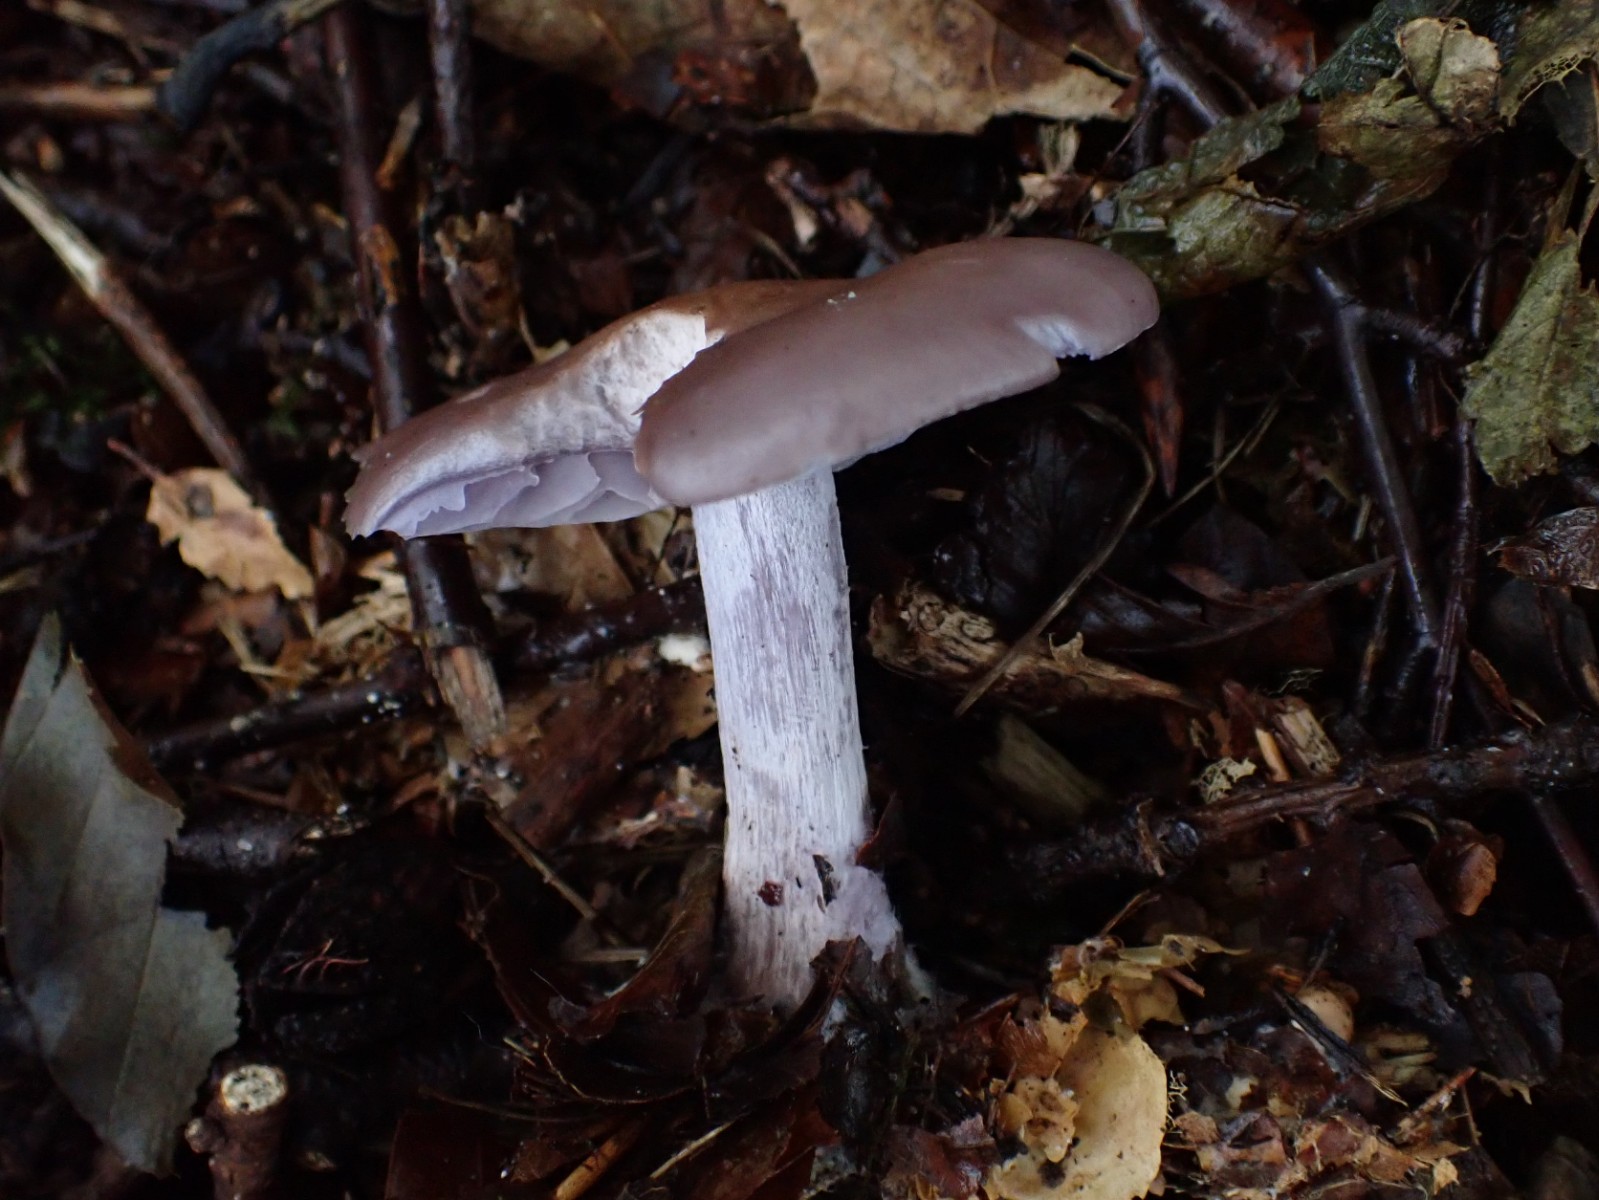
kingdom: Fungi
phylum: Basidiomycota
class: Agaricomycetes
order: Agaricales
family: Tricholomataceae
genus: Lepista
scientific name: Lepista nuda
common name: violet hekseringshat
